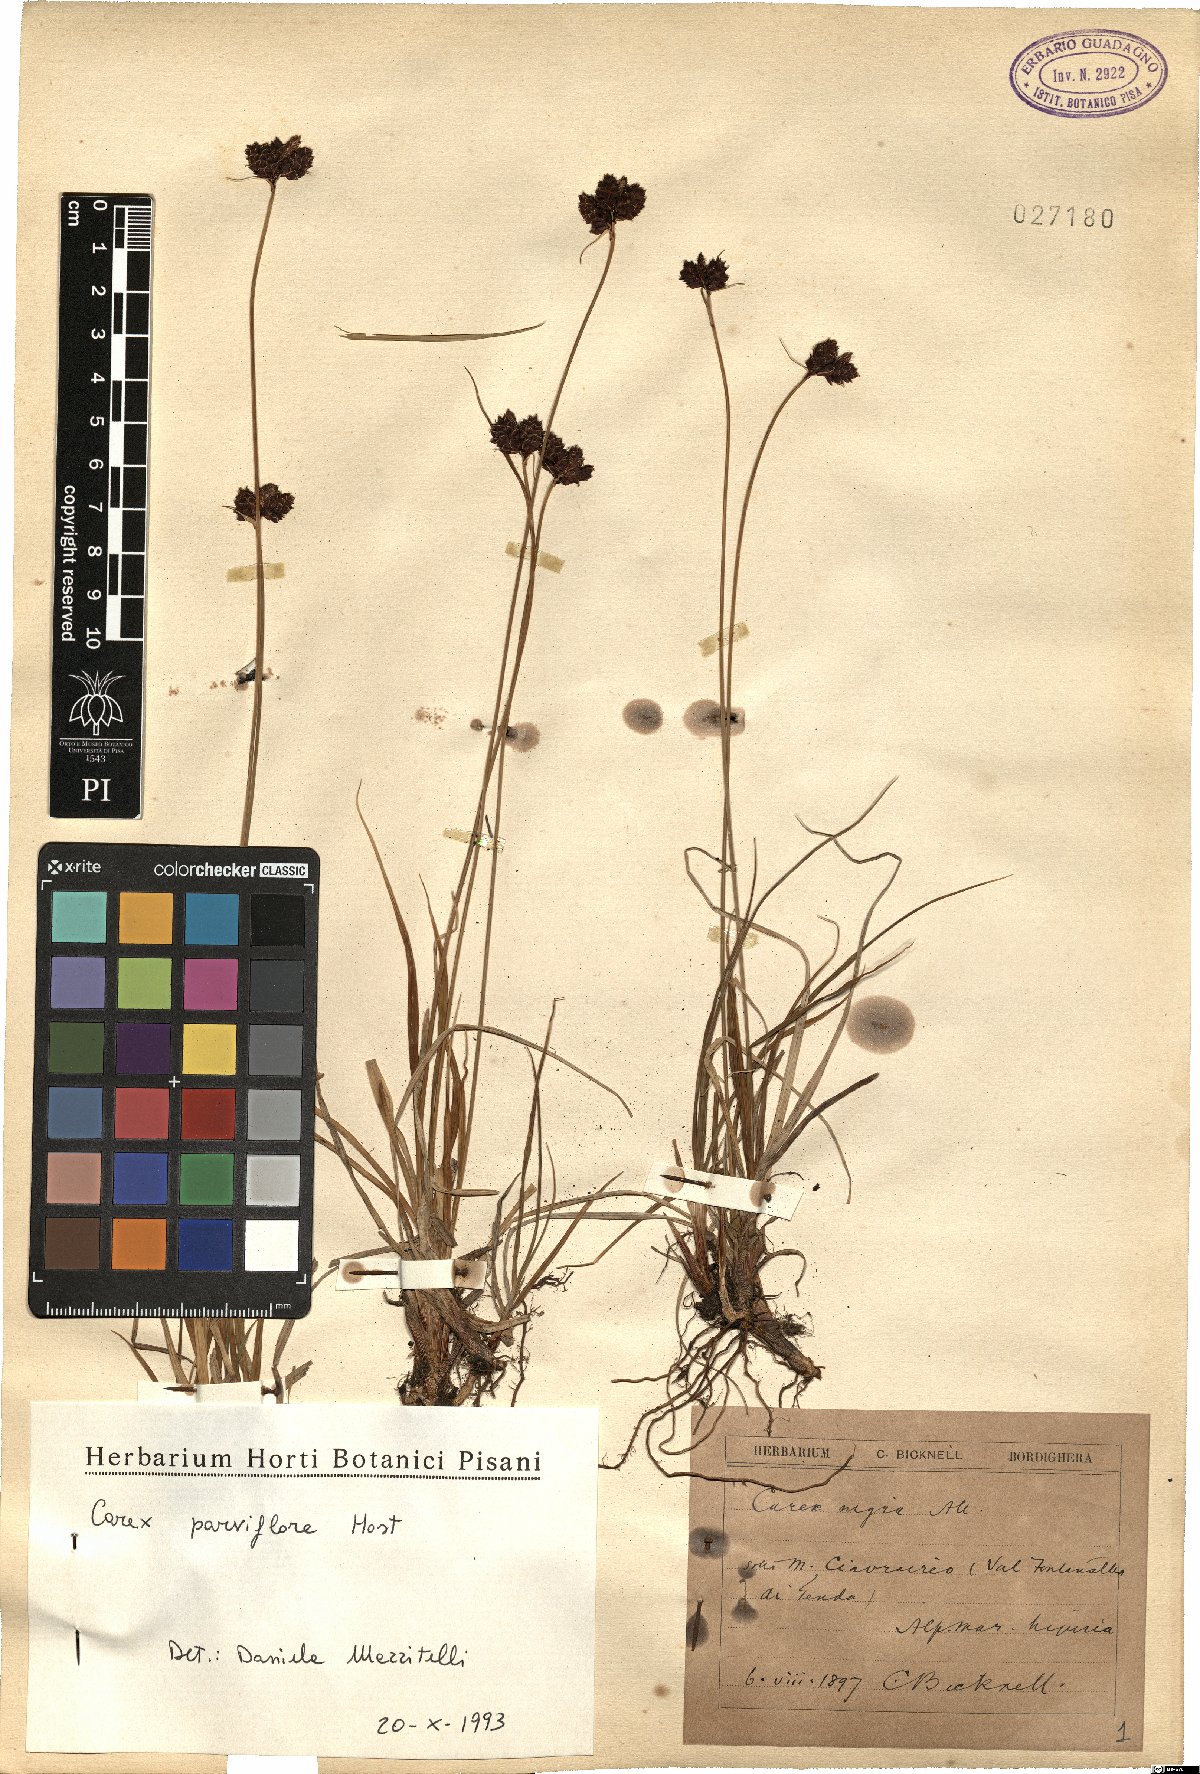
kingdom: Plantae
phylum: Tracheophyta
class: Liliopsida
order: Poales
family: Cyperaceae
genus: Carex
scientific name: Carex parviflora
